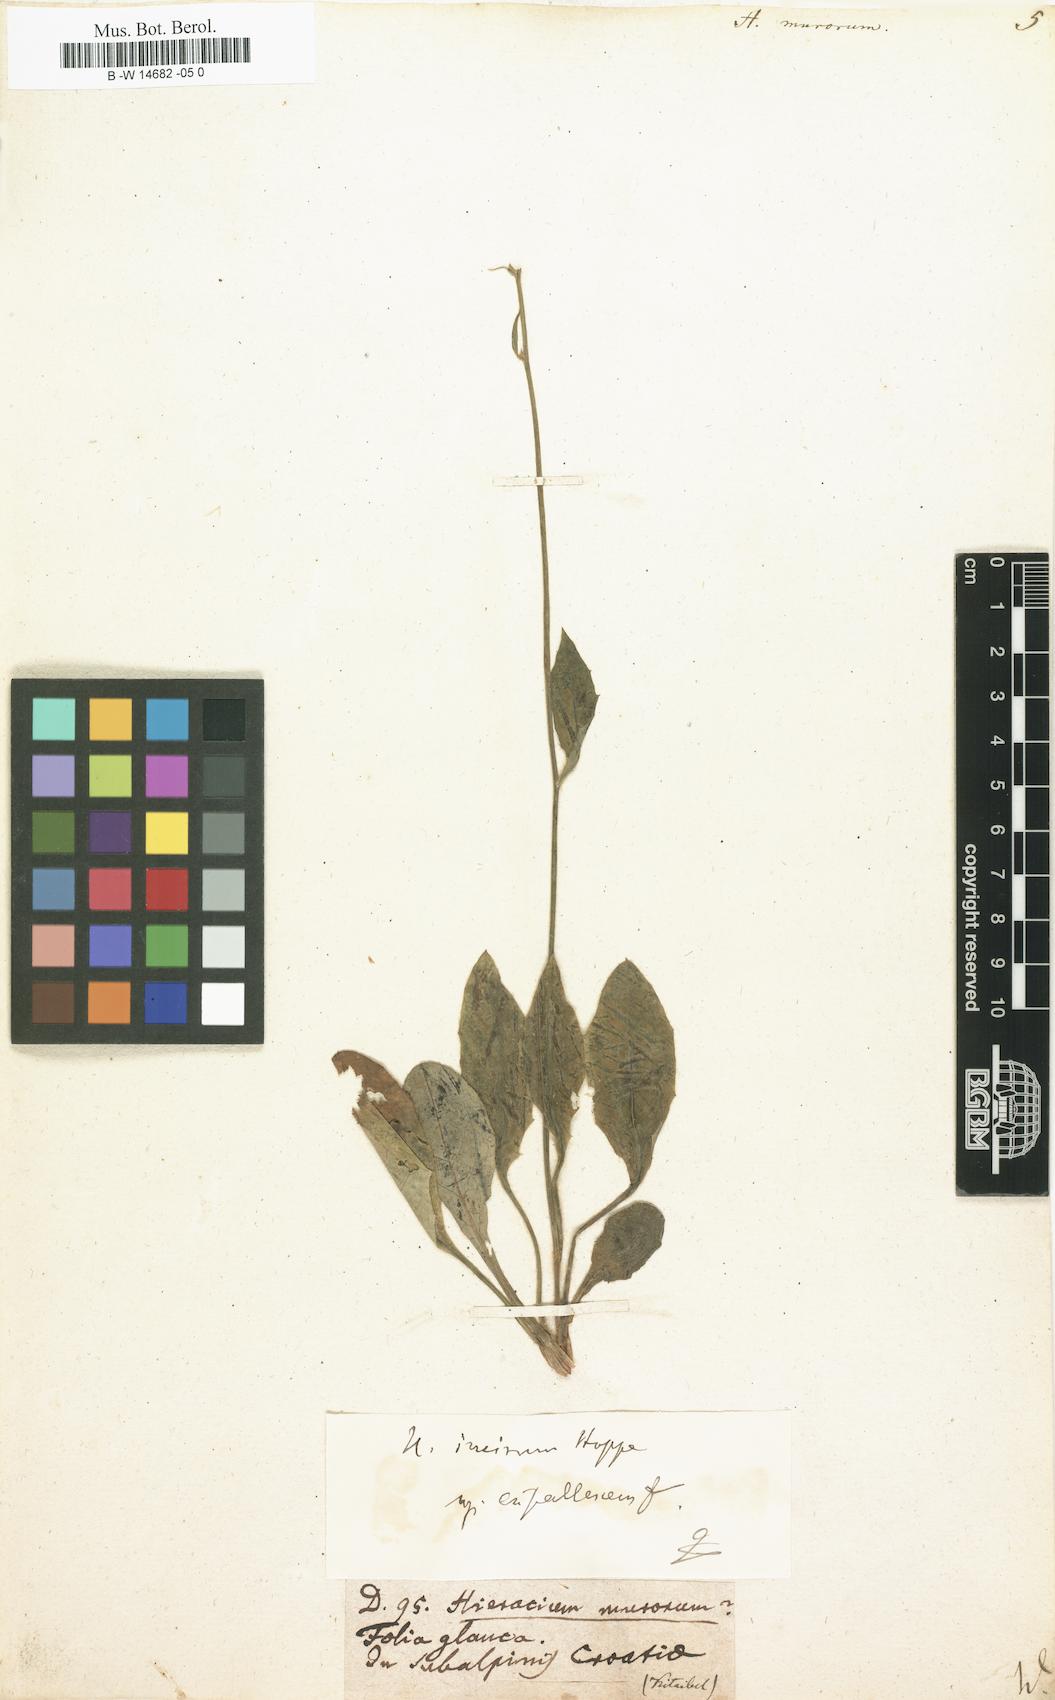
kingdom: Plantae
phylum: Tracheophyta
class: Magnoliopsida
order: Asterales
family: Asteraceae
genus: Hieracium
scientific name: Hieracium murorum
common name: Wall hawkweed
